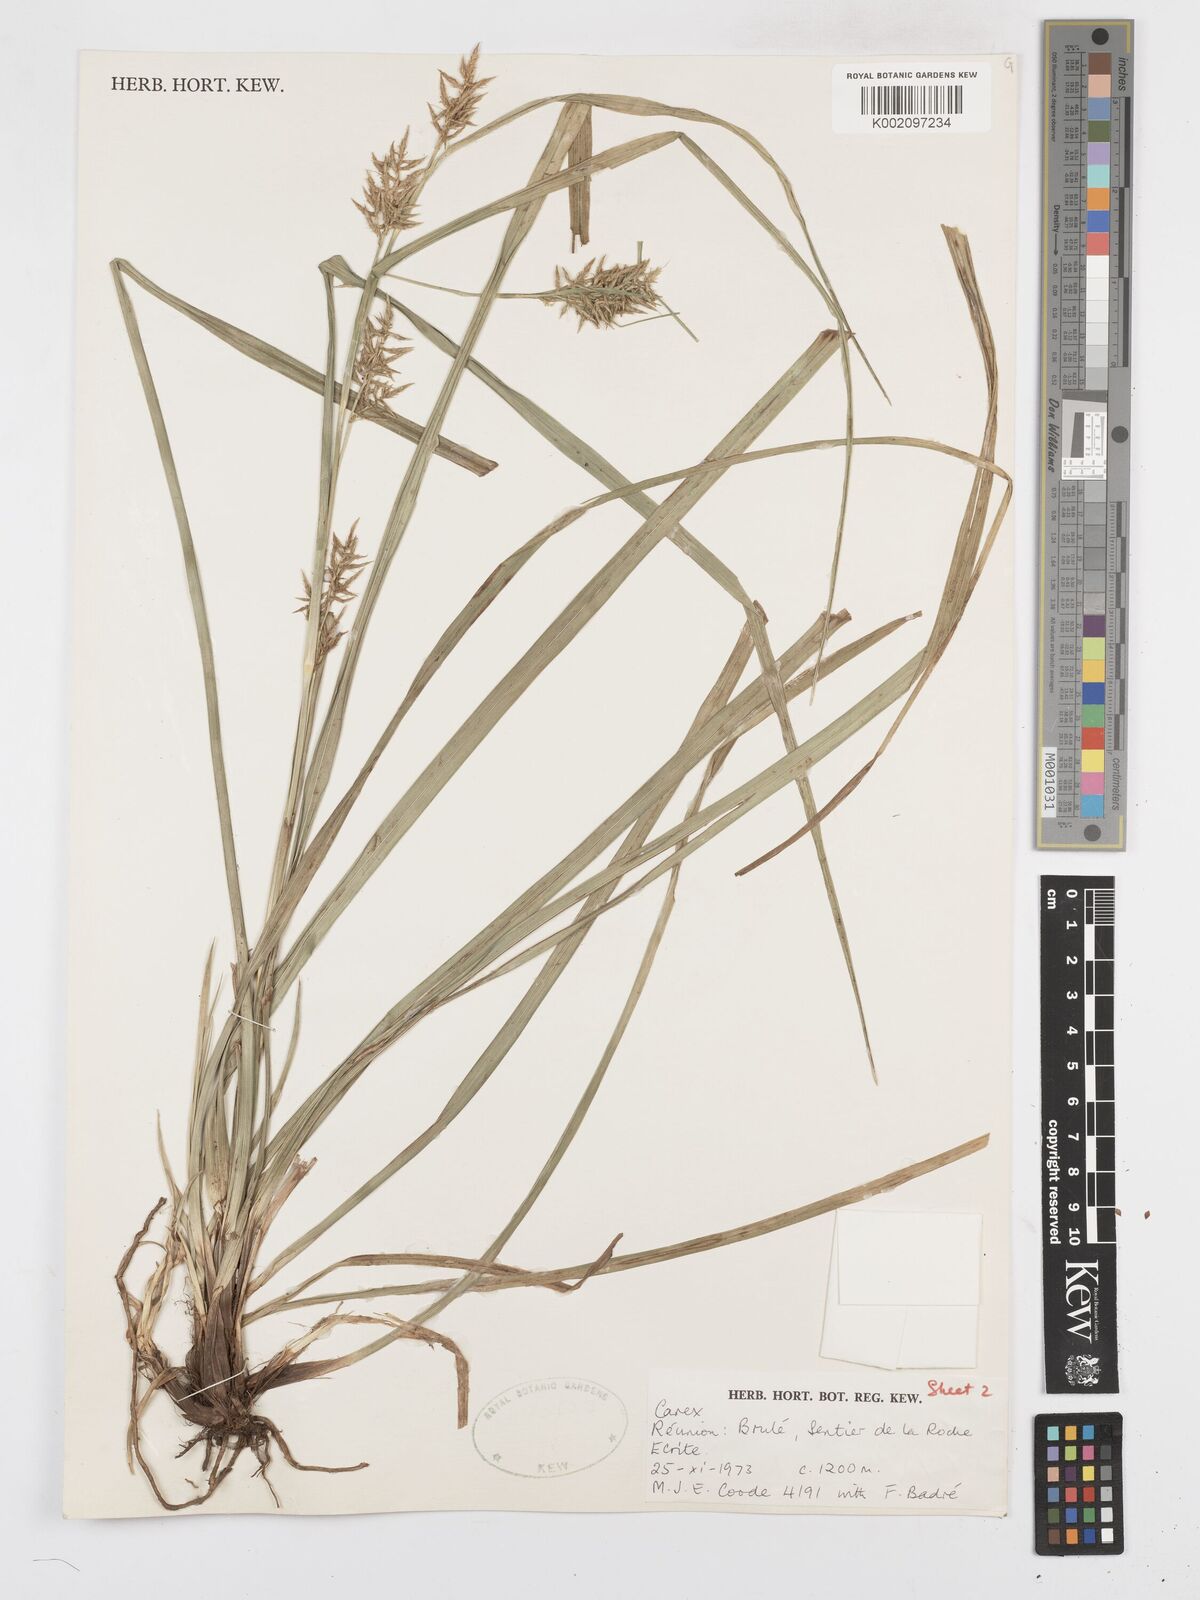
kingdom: Plantae
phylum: Tracheophyta
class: Liliopsida
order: Poales
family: Cyperaceae
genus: Carex
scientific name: Carex wahlenbergiana
